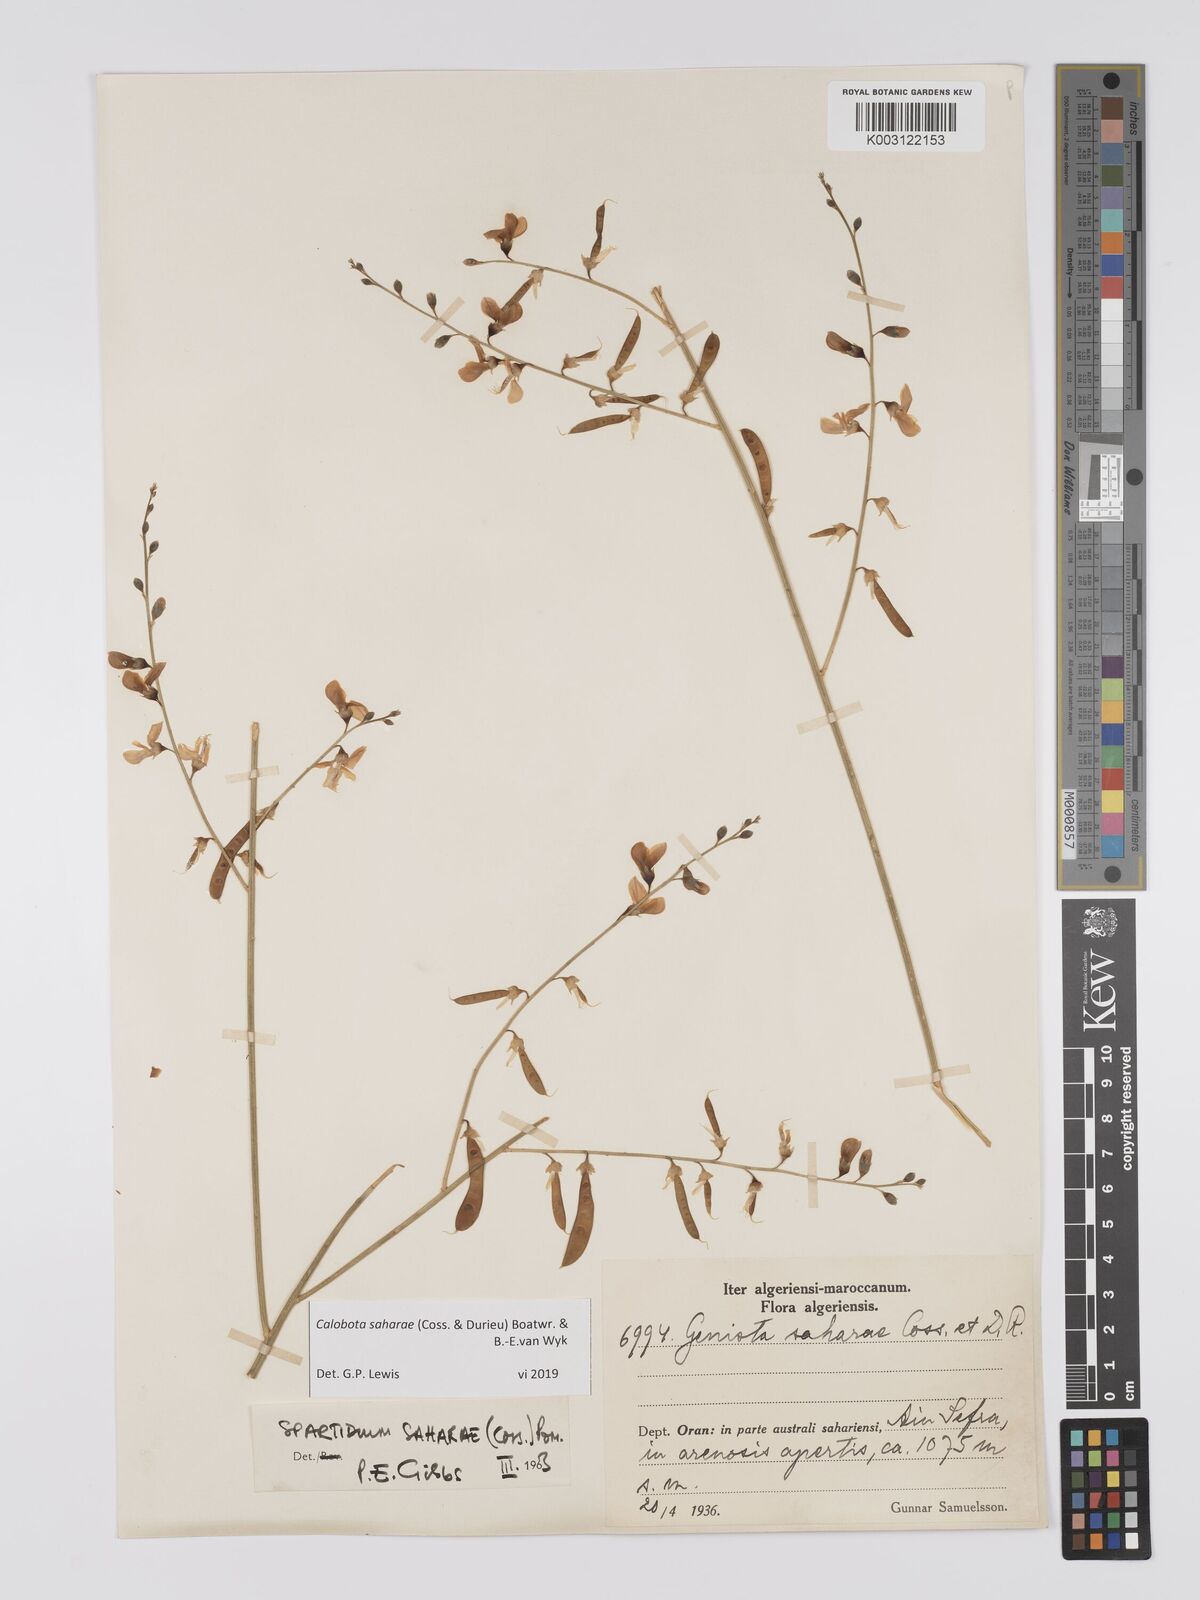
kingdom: Plantae
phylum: Tracheophyta
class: Magnoliopsida
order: Fabales
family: Fabaceae
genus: Calobota
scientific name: Calobota saharae
